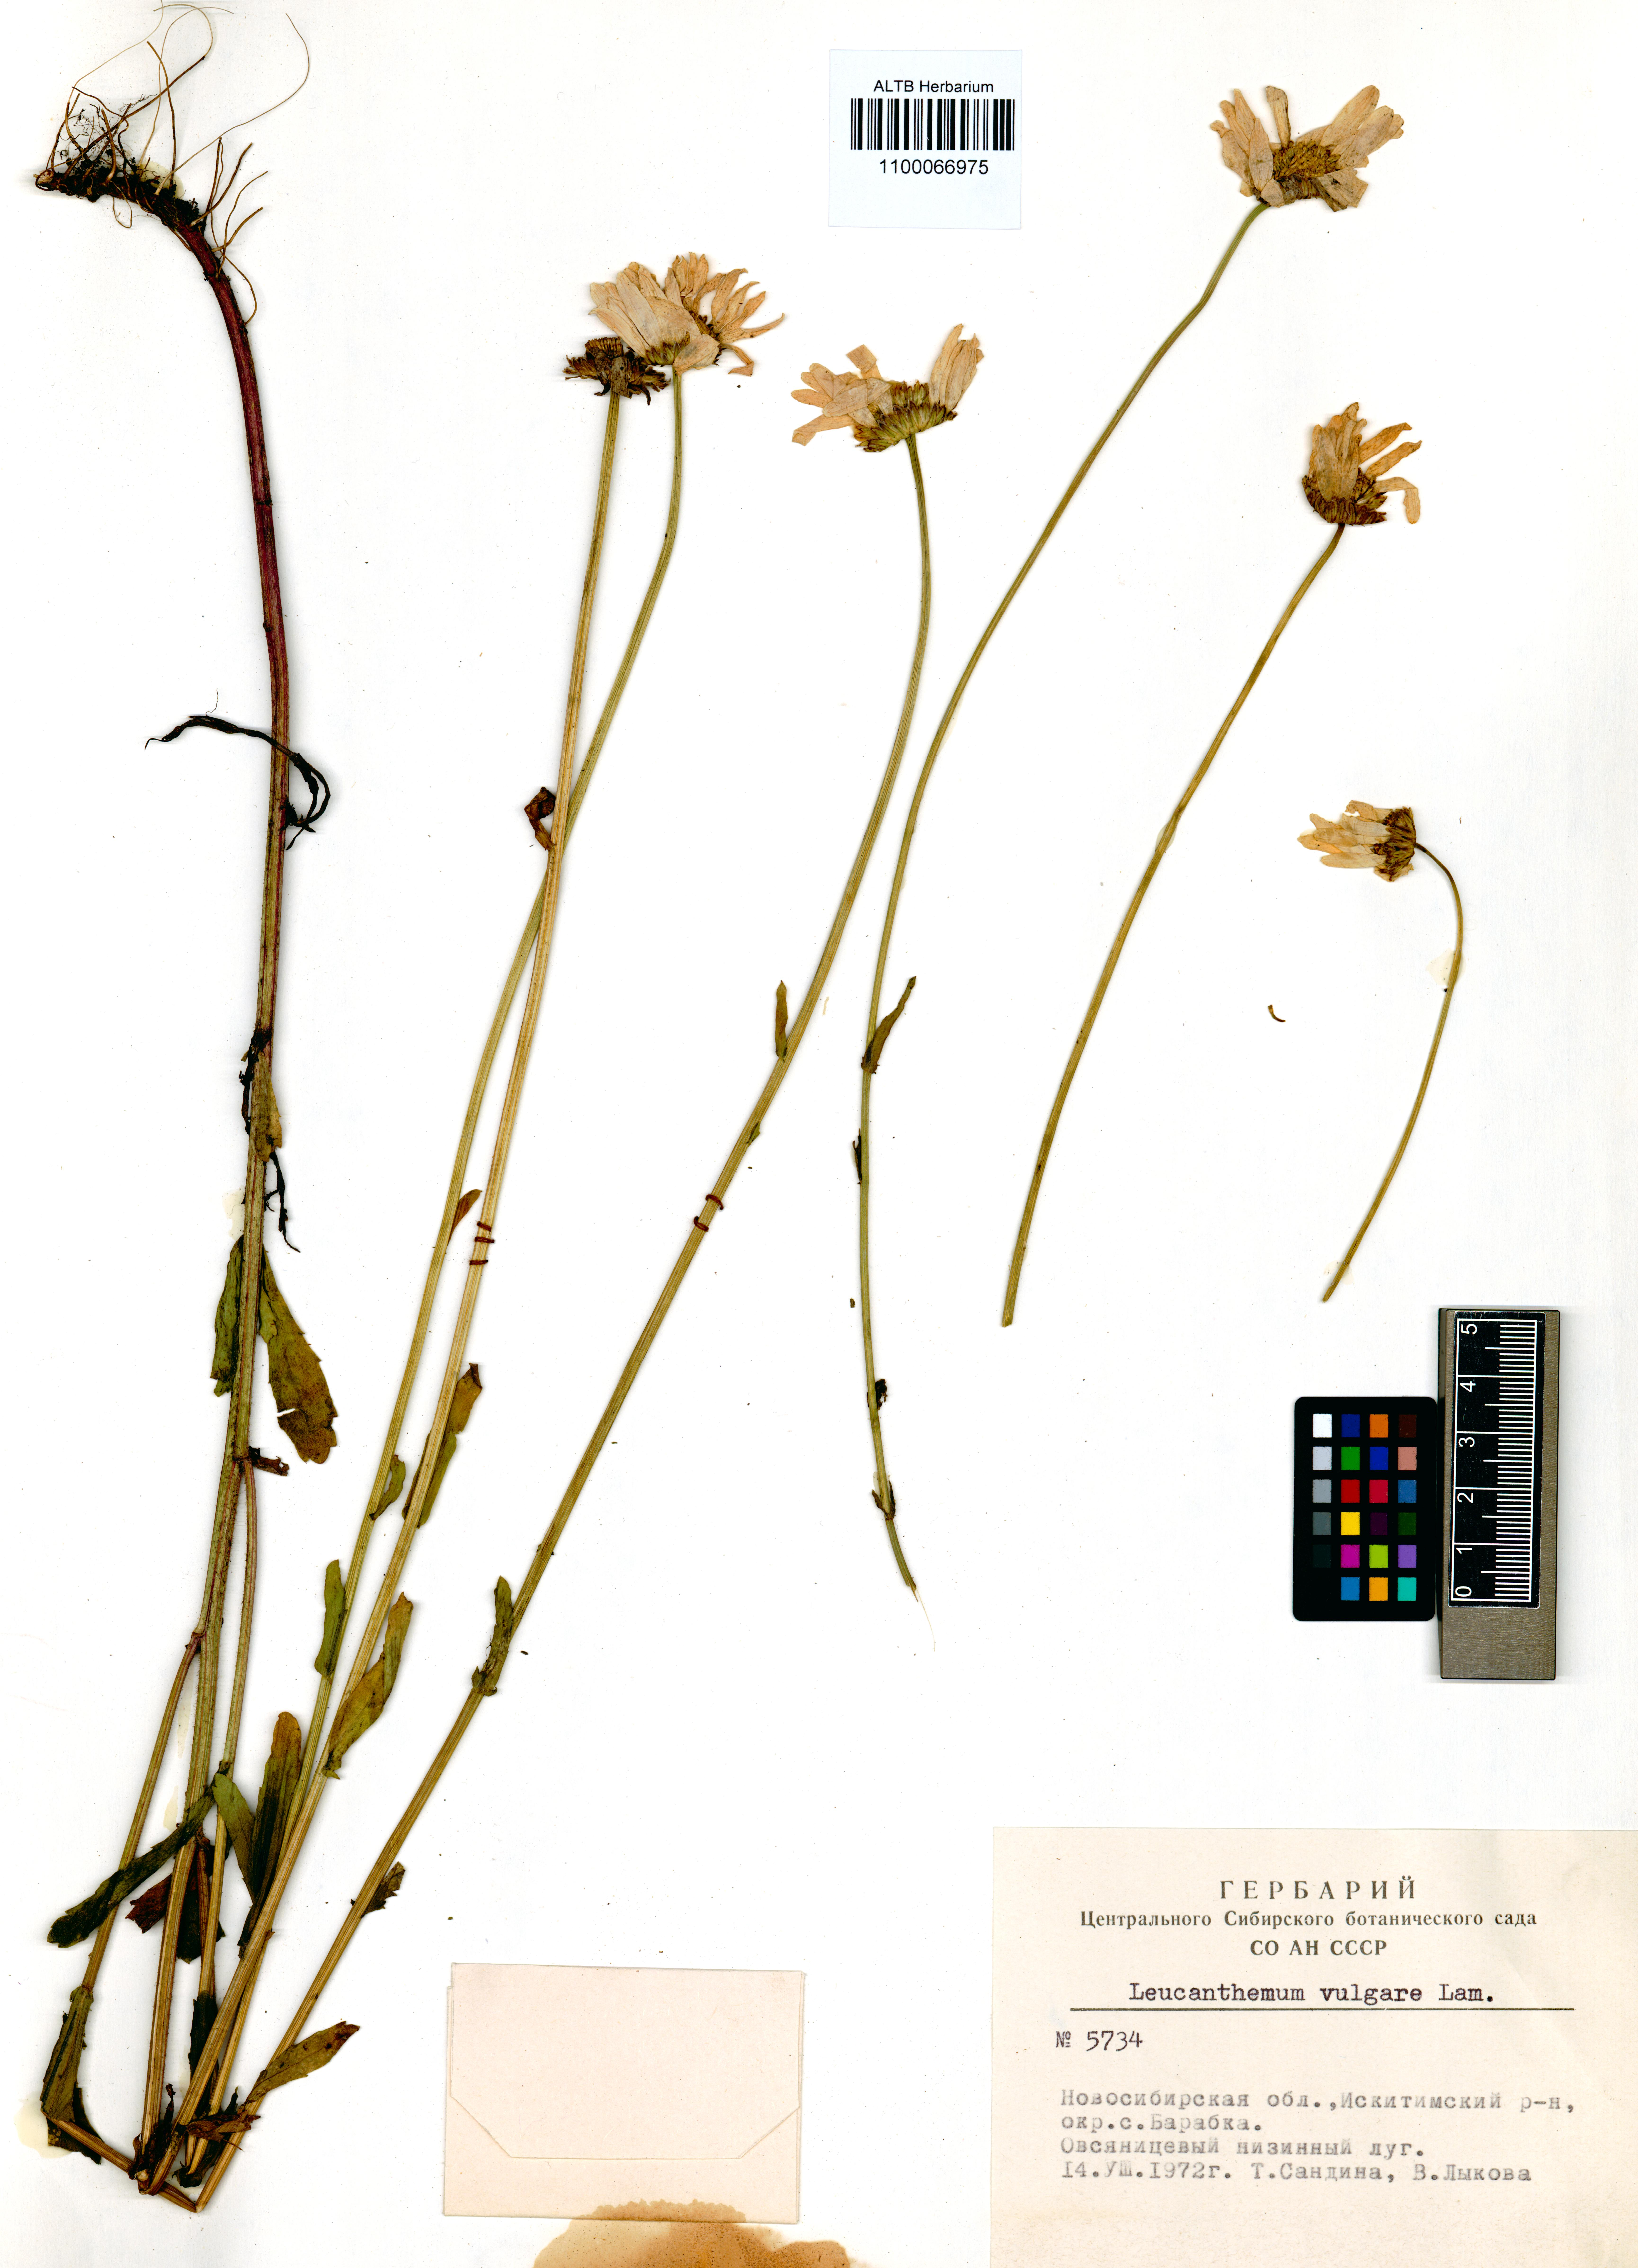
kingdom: Plantae
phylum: Tracheophyta
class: Magnoliopsida
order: Asterales
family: Asteraceae
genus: Leucanthemum
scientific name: Leucanthemum vulgare
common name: Oxeye daisy
